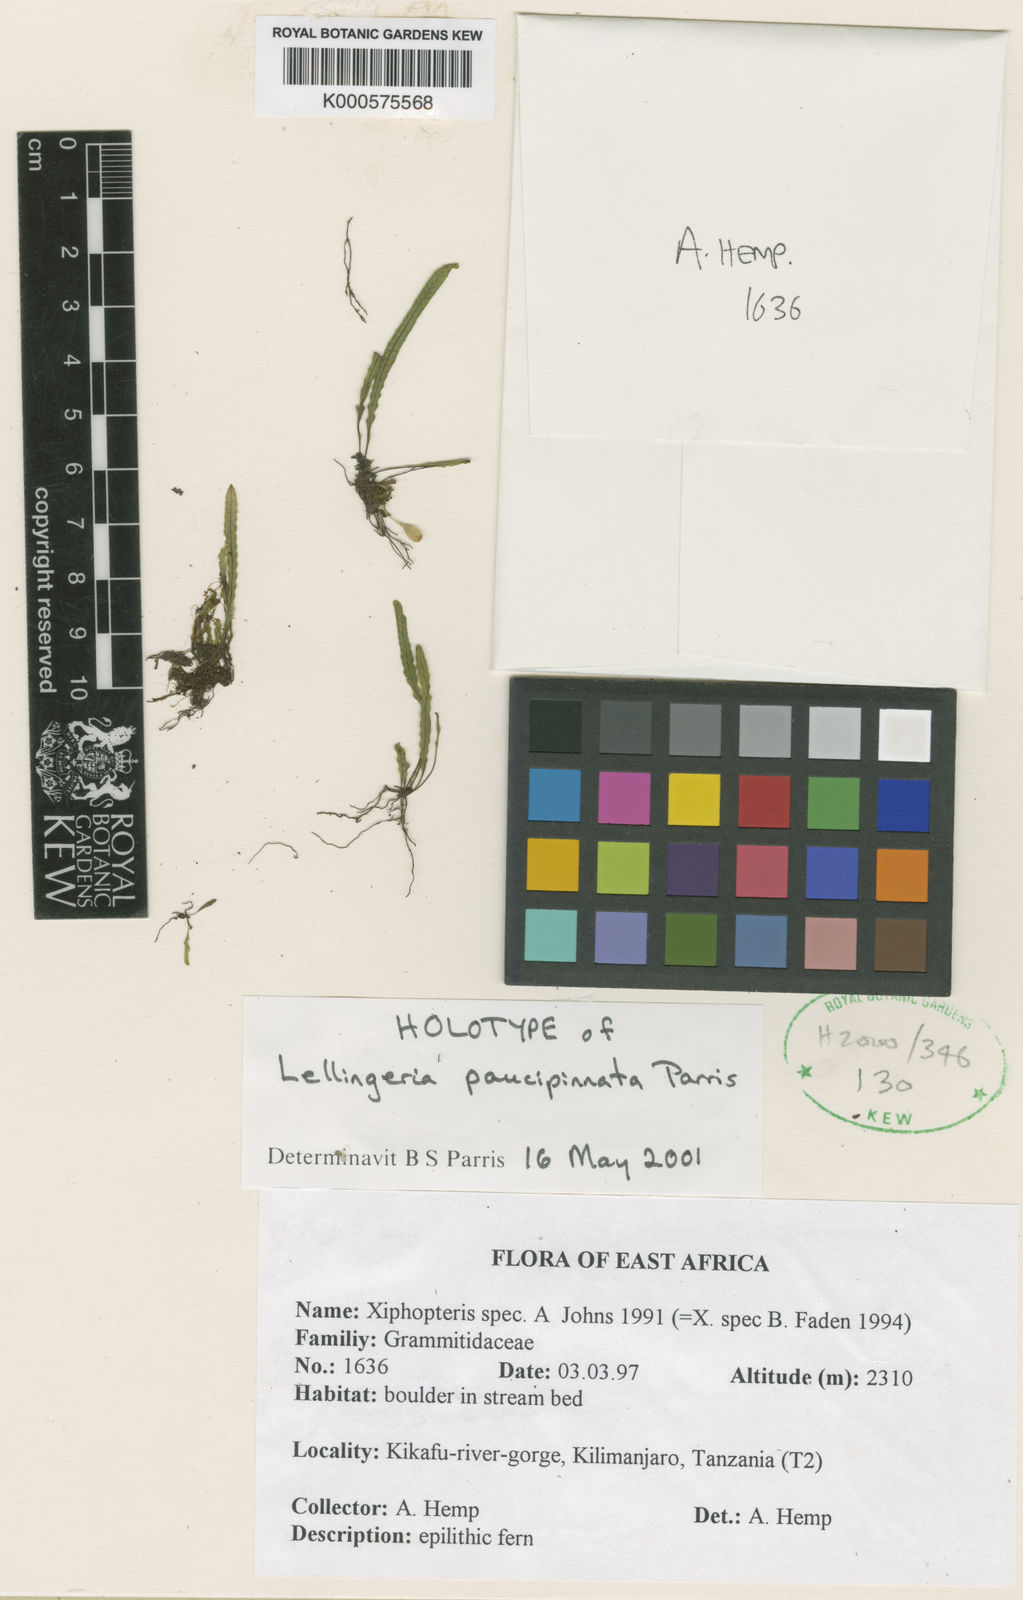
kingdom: Plantae
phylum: Tracheophyta
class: Polypodiopsida
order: Polypodiales
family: Polypodiaceae
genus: Stenogrammitis
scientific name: Stenogrammitis paucipinnata
